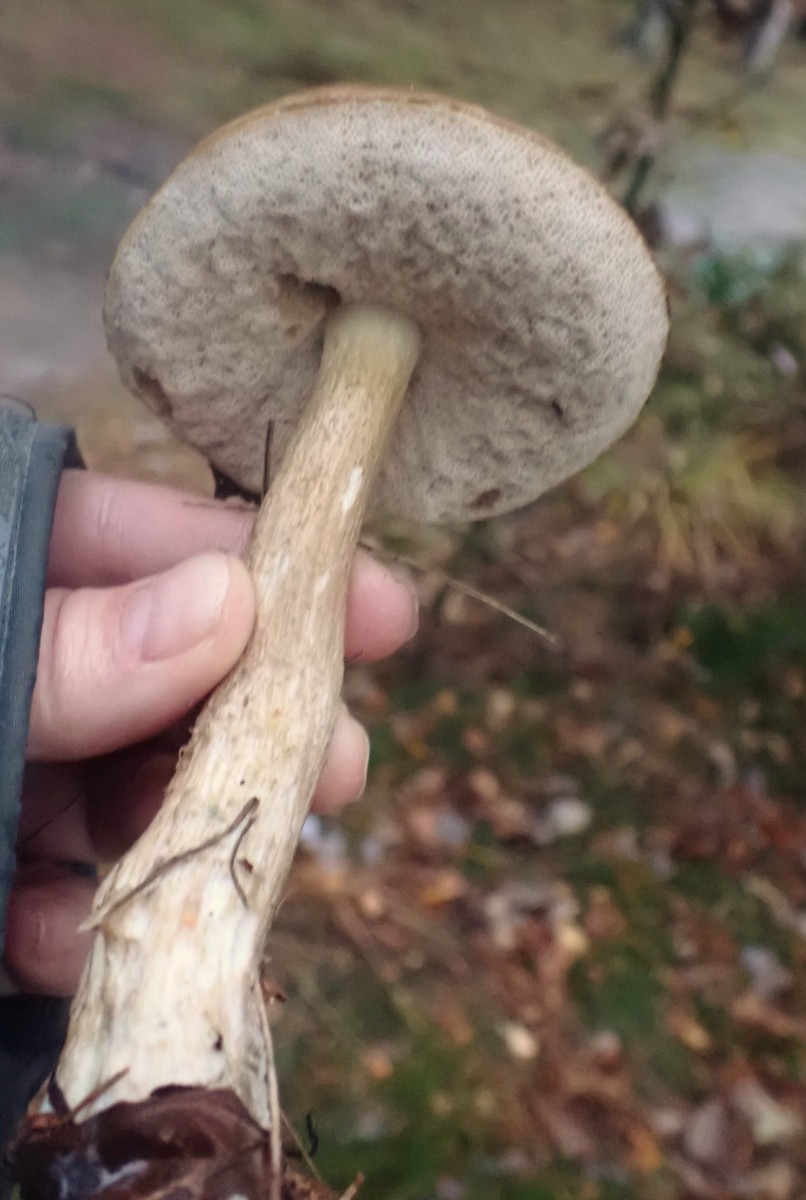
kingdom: Fungi
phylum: Basidiomycota
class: Agaricomycetes
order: Boletales
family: Boletaceae
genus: Tylopilus
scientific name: Tylopilus felleus
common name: galderørhat
